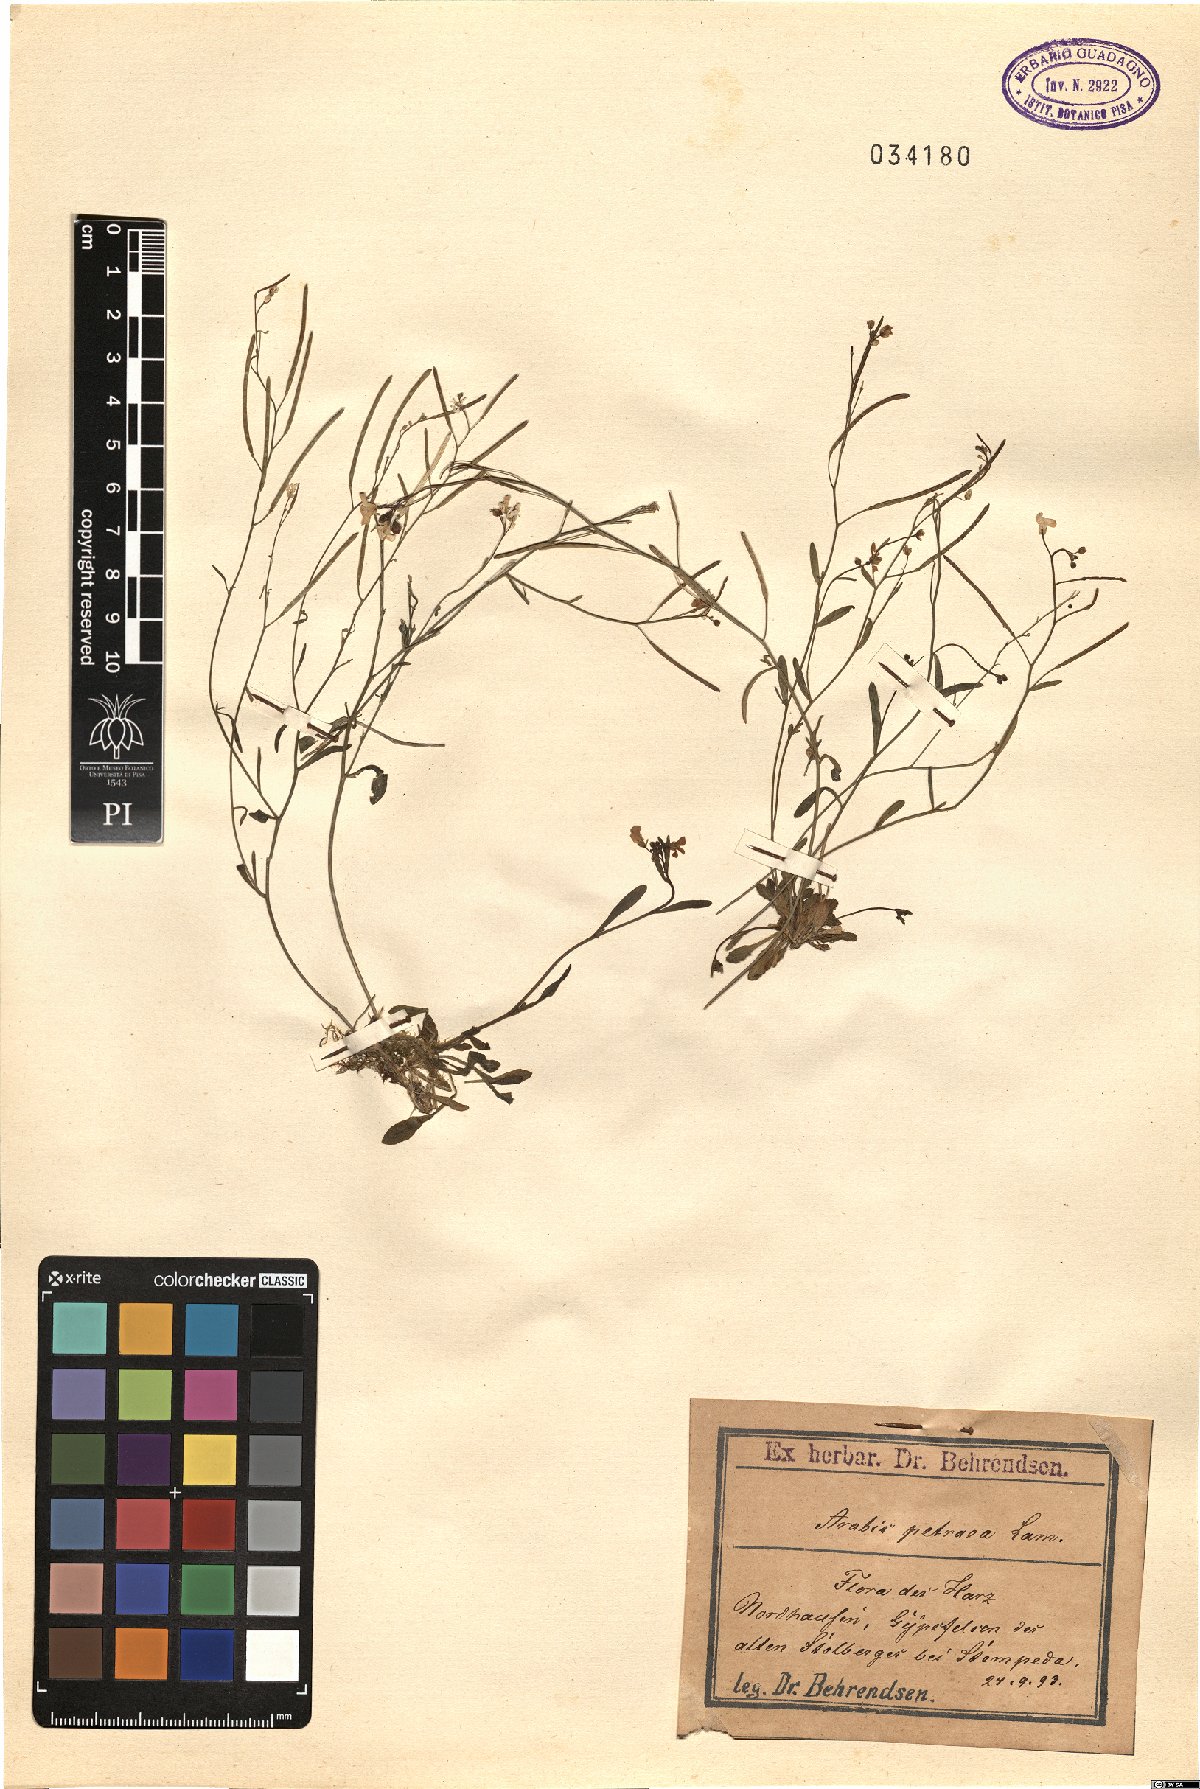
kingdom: Plantae
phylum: Tracheophyta
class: Magnoliopsida
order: Brassicales
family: Brassicaceae
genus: Arabidopsis
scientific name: Arabidopsis lyrata
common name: Lyrate rockcress
